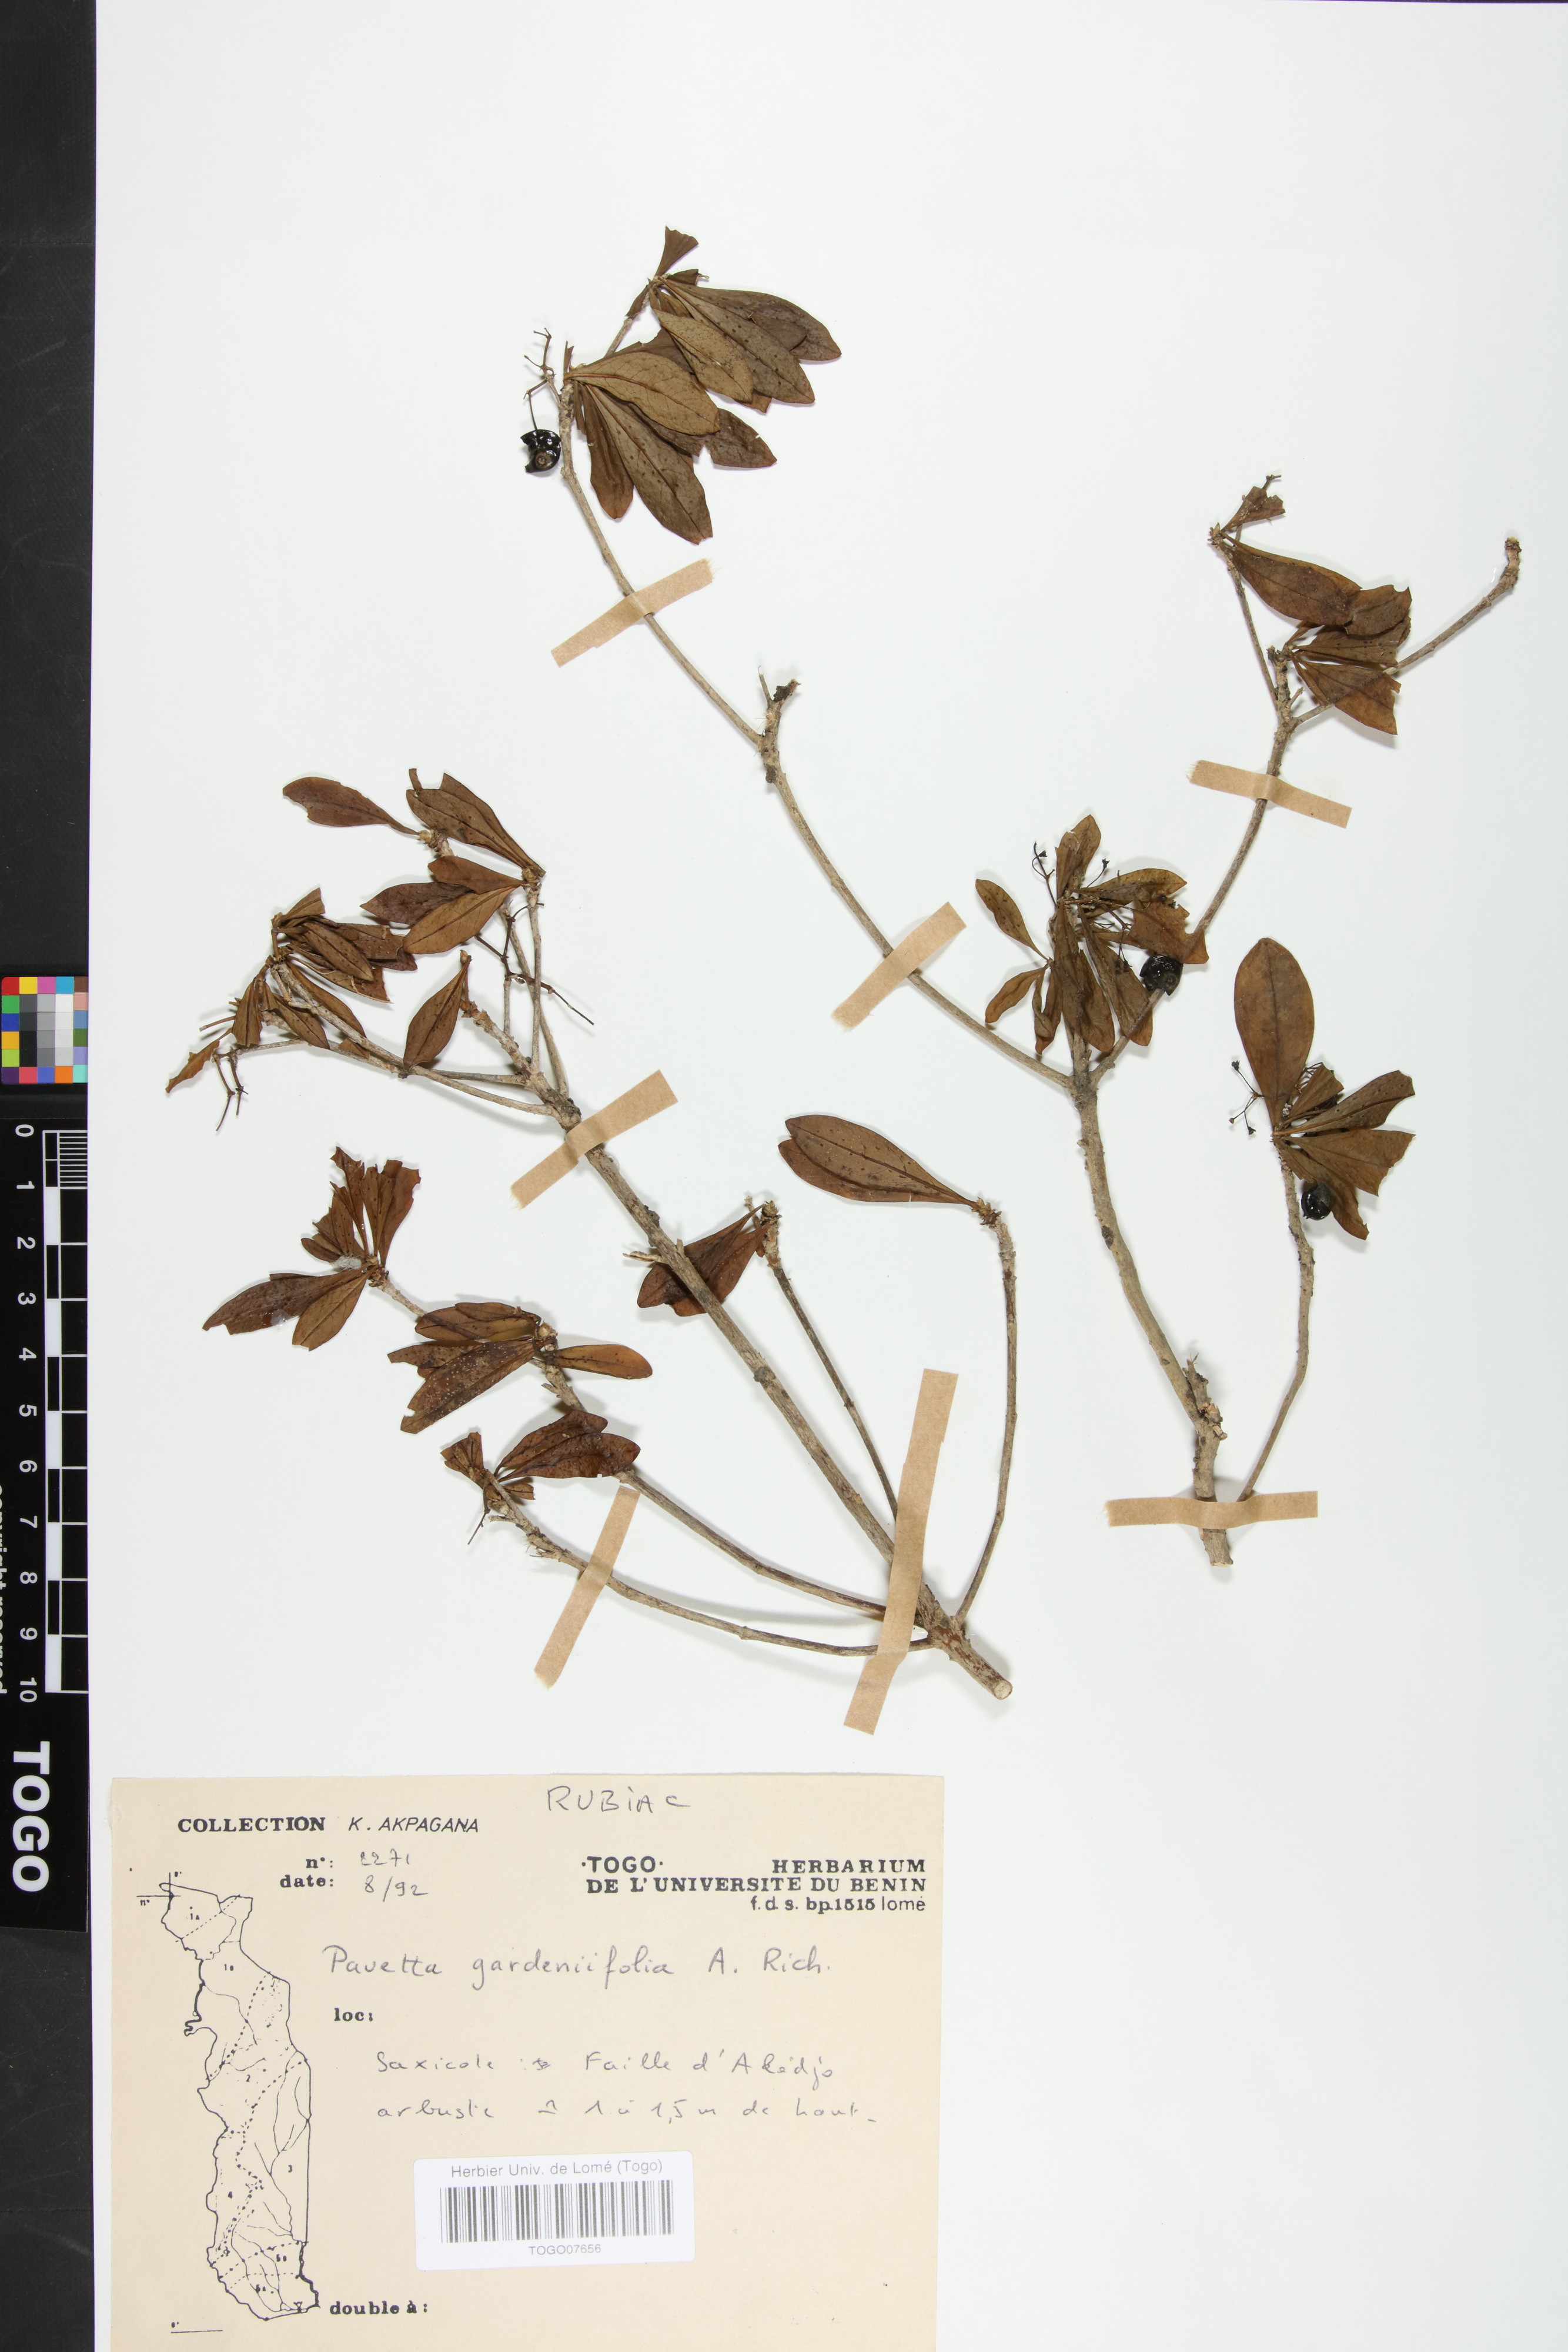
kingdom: Plantae
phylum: Tracheophyta
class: Magnoliopsida
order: Gentianales
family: Rubiaceae
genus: Pavetta
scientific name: Pavetta gardeniifolia
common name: Common brides-bush
